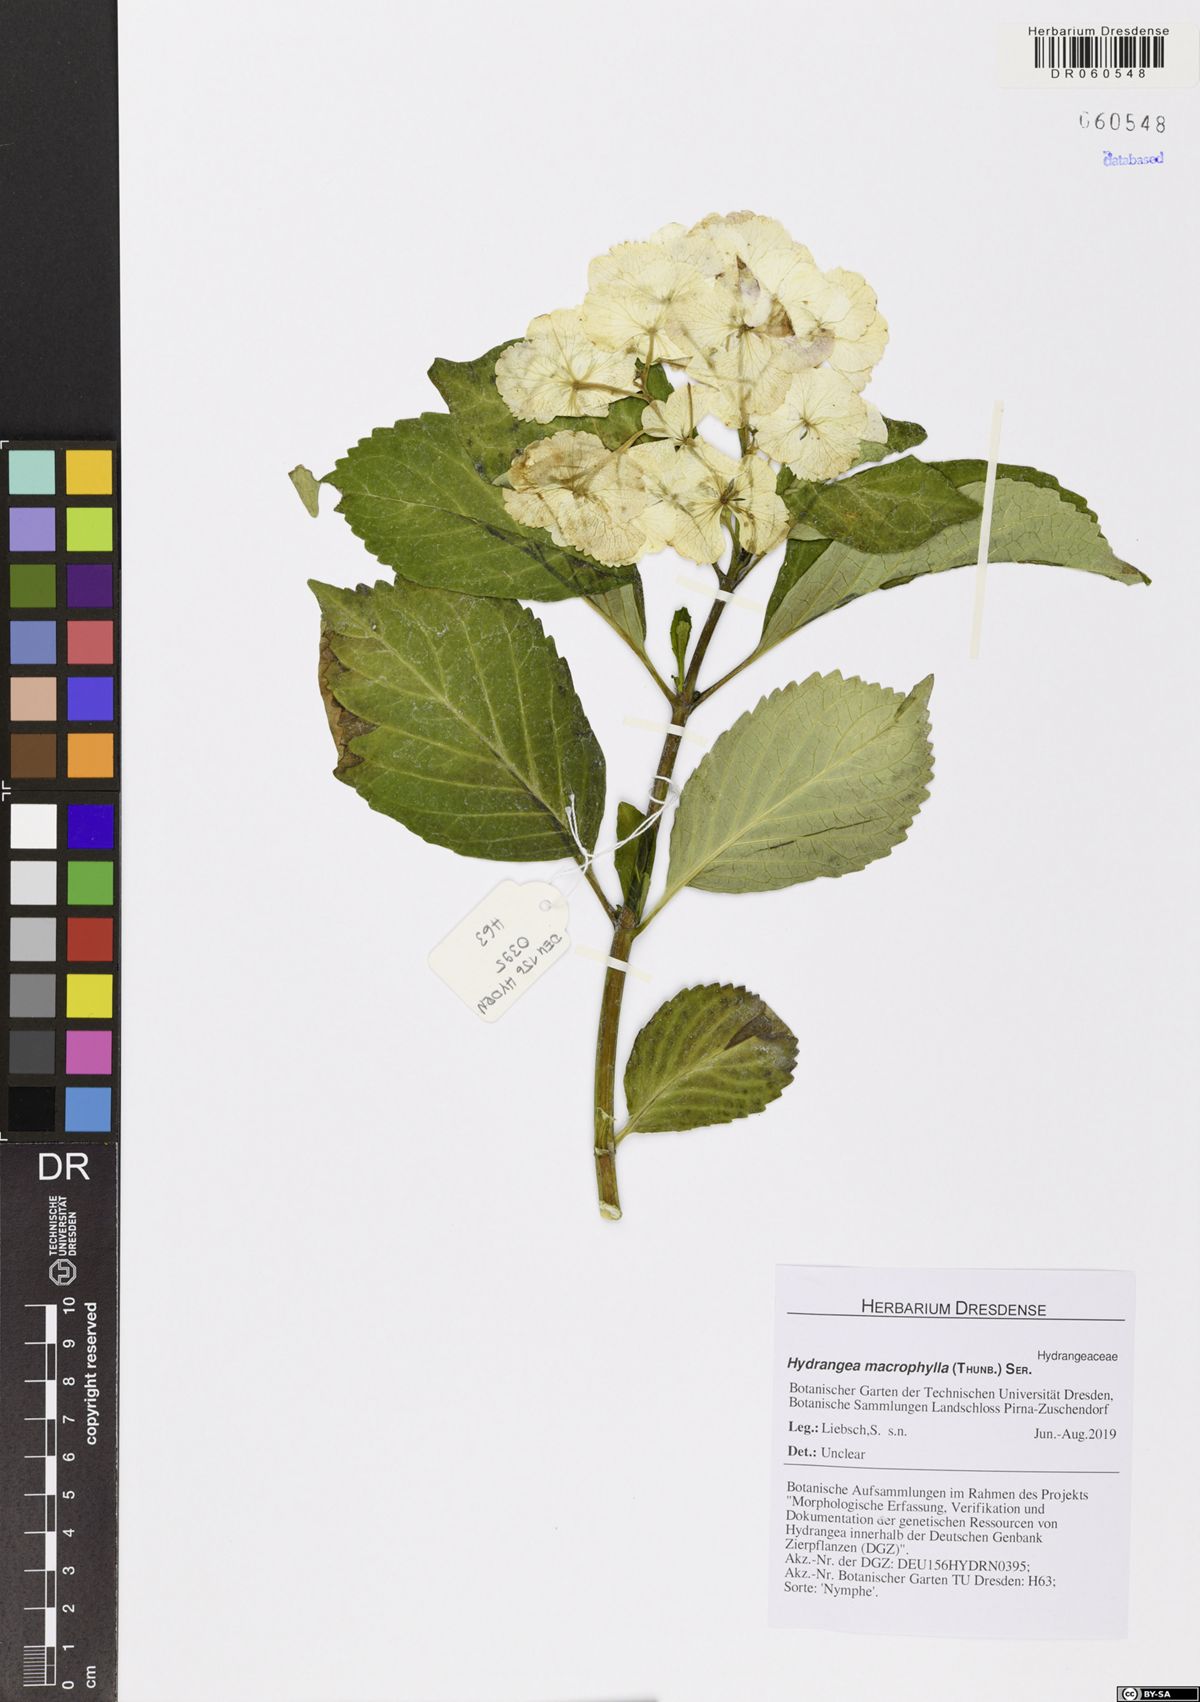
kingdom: Plantae
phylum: Tracheophyta
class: Magnoliopsida
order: Cornales
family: Hydrangeaceae
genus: Hydrangea
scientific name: Hydrangea macrophylla
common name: Hydrangea
